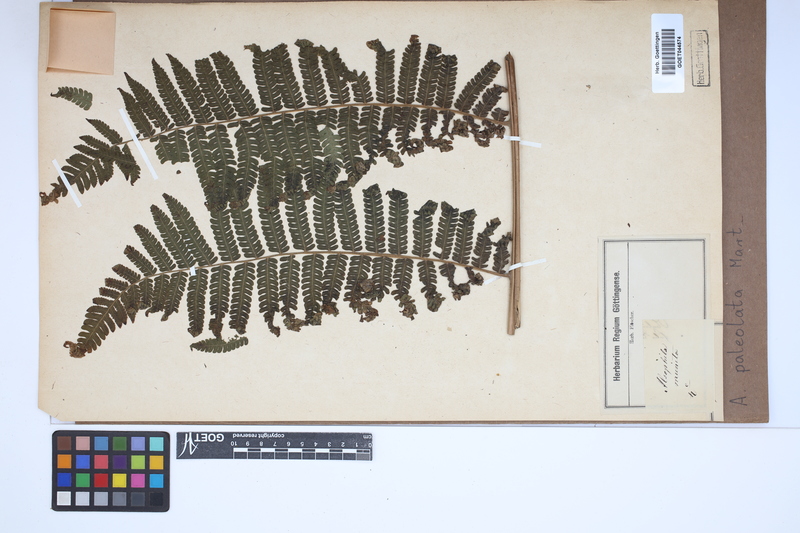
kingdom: Plantae
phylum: Tracheophyta
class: Polypodiopsida
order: Cyatheales
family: Cyatheaceae
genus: Cyathea
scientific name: Cyathea phalerata
